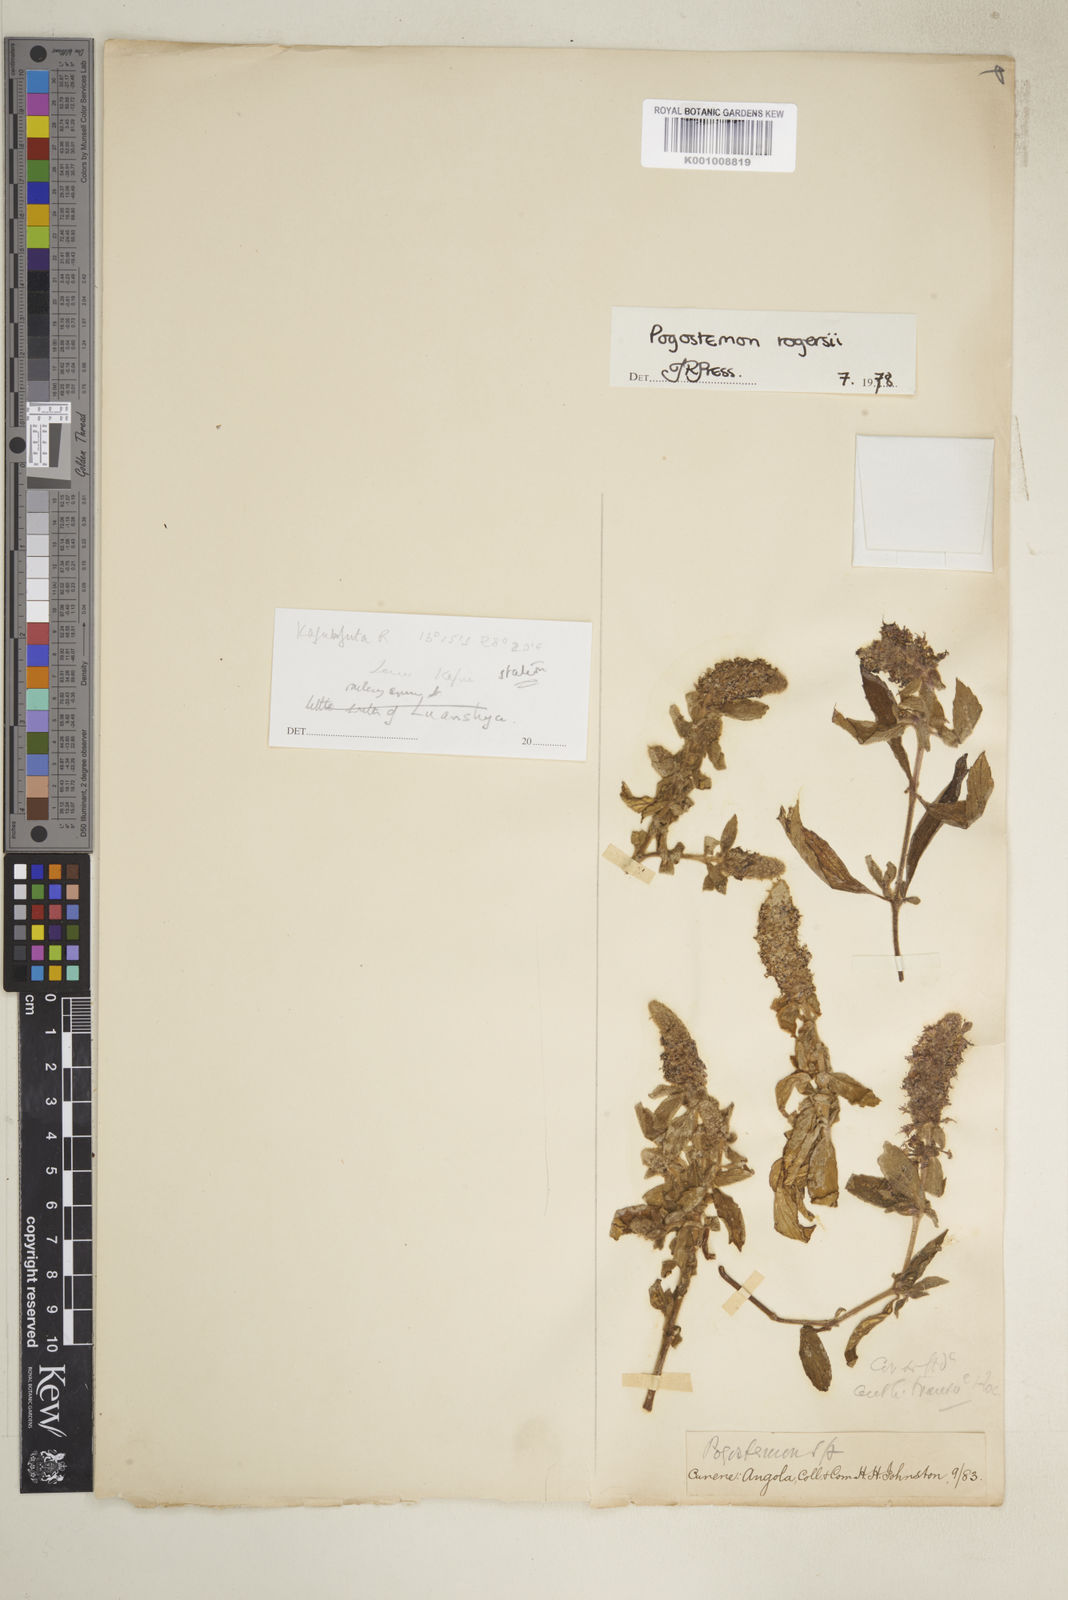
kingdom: Plantae
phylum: Tracheophyta
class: Magnoliopsida
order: Lamiales
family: Lamiaceae
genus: Pogostemon
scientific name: Pogostemon rogersii
